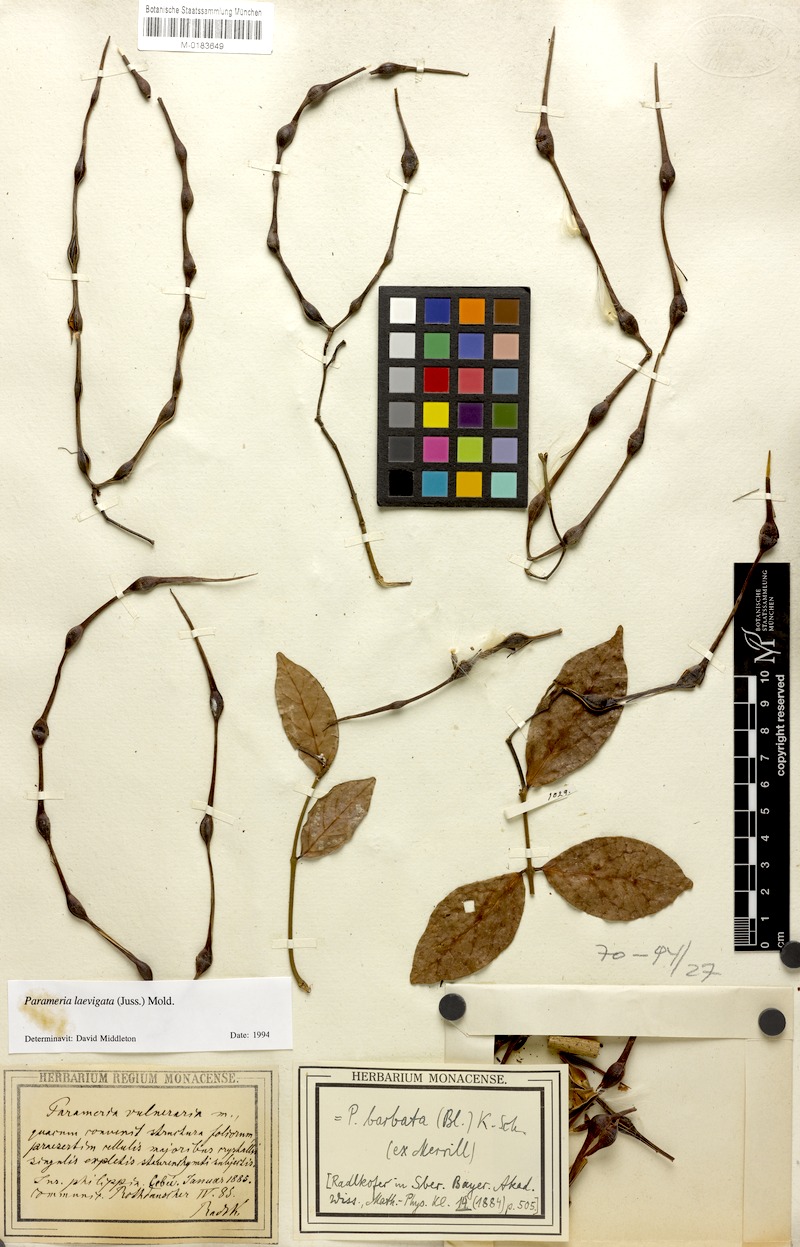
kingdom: Plantae
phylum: Tracheophyta
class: Magnoliopsida
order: Gentianales
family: Apocynaceae
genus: Urceola
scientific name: Urceola laevigata
